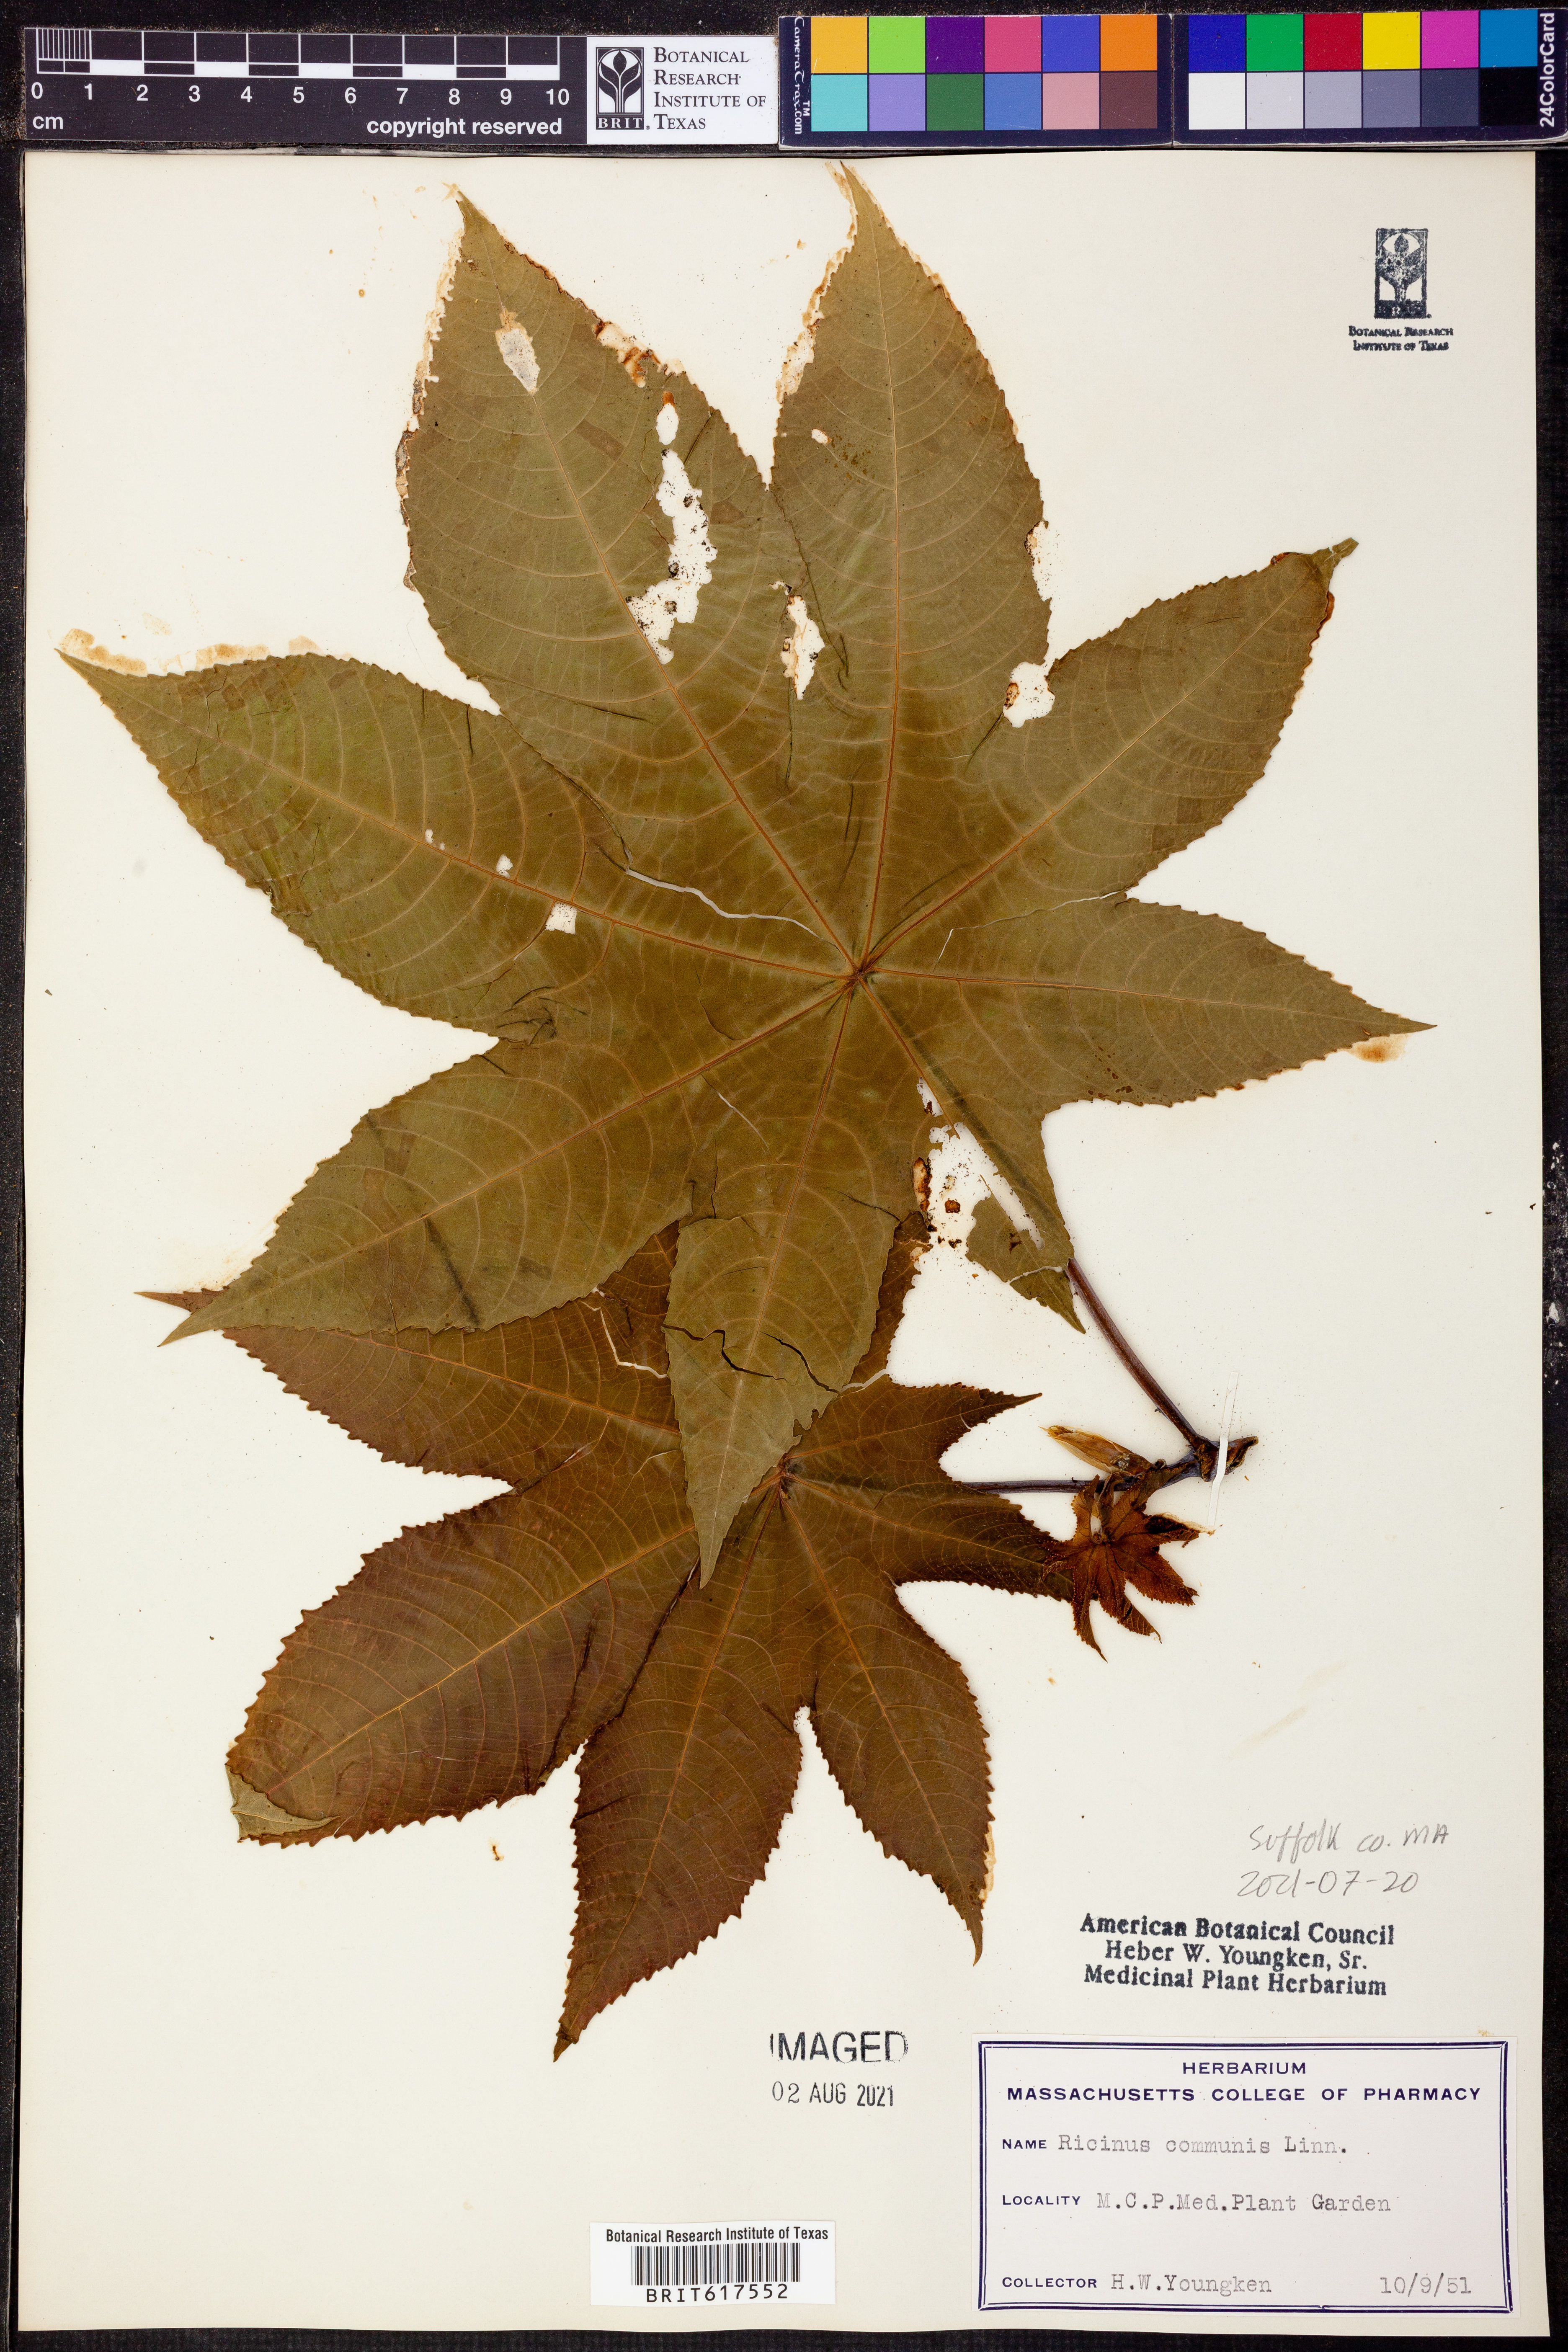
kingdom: Plantae
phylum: Tracheophyta
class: Magnoliopsida
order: Malpighiales
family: Euphorbiaceae
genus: Ricinus
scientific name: Ricinus communis
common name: Castor-oil-plant
